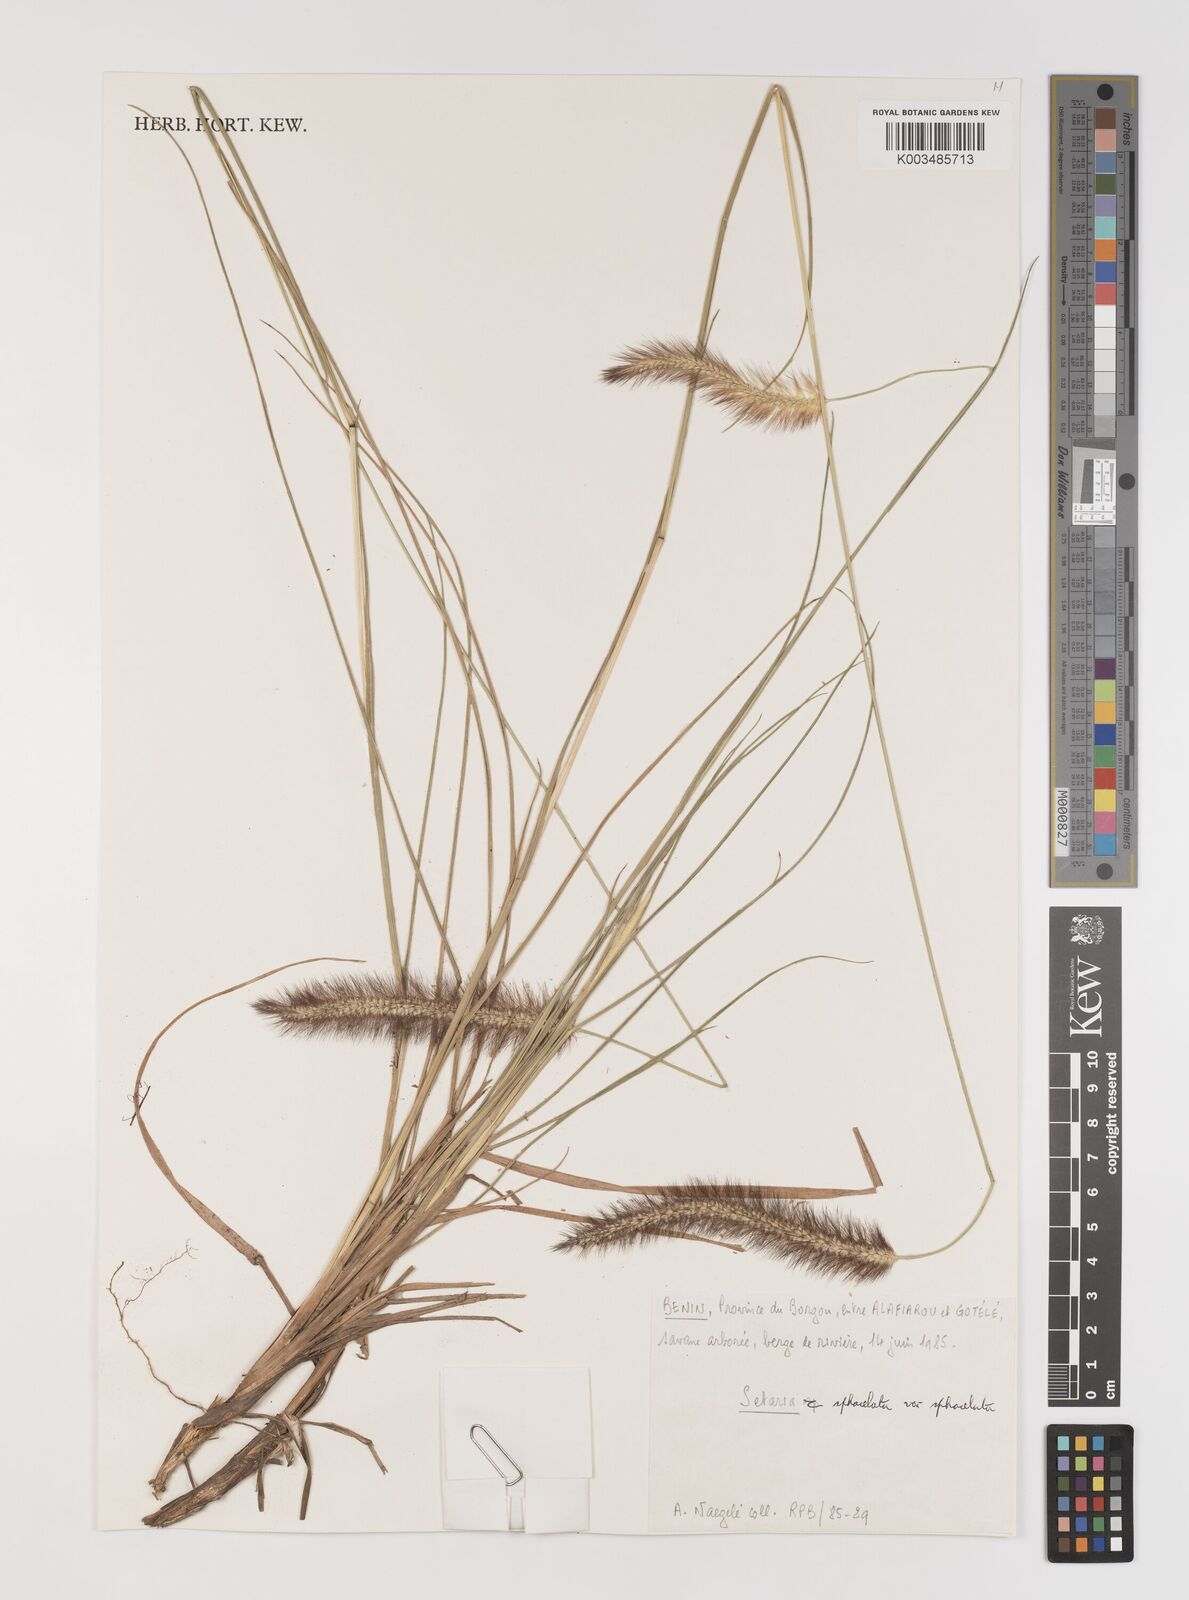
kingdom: Plantae
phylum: Tracheophyta
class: Liliopsida
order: Poales
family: Poaceae
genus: Setaria
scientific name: Setaria sphacelata
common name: African bristlegrass
